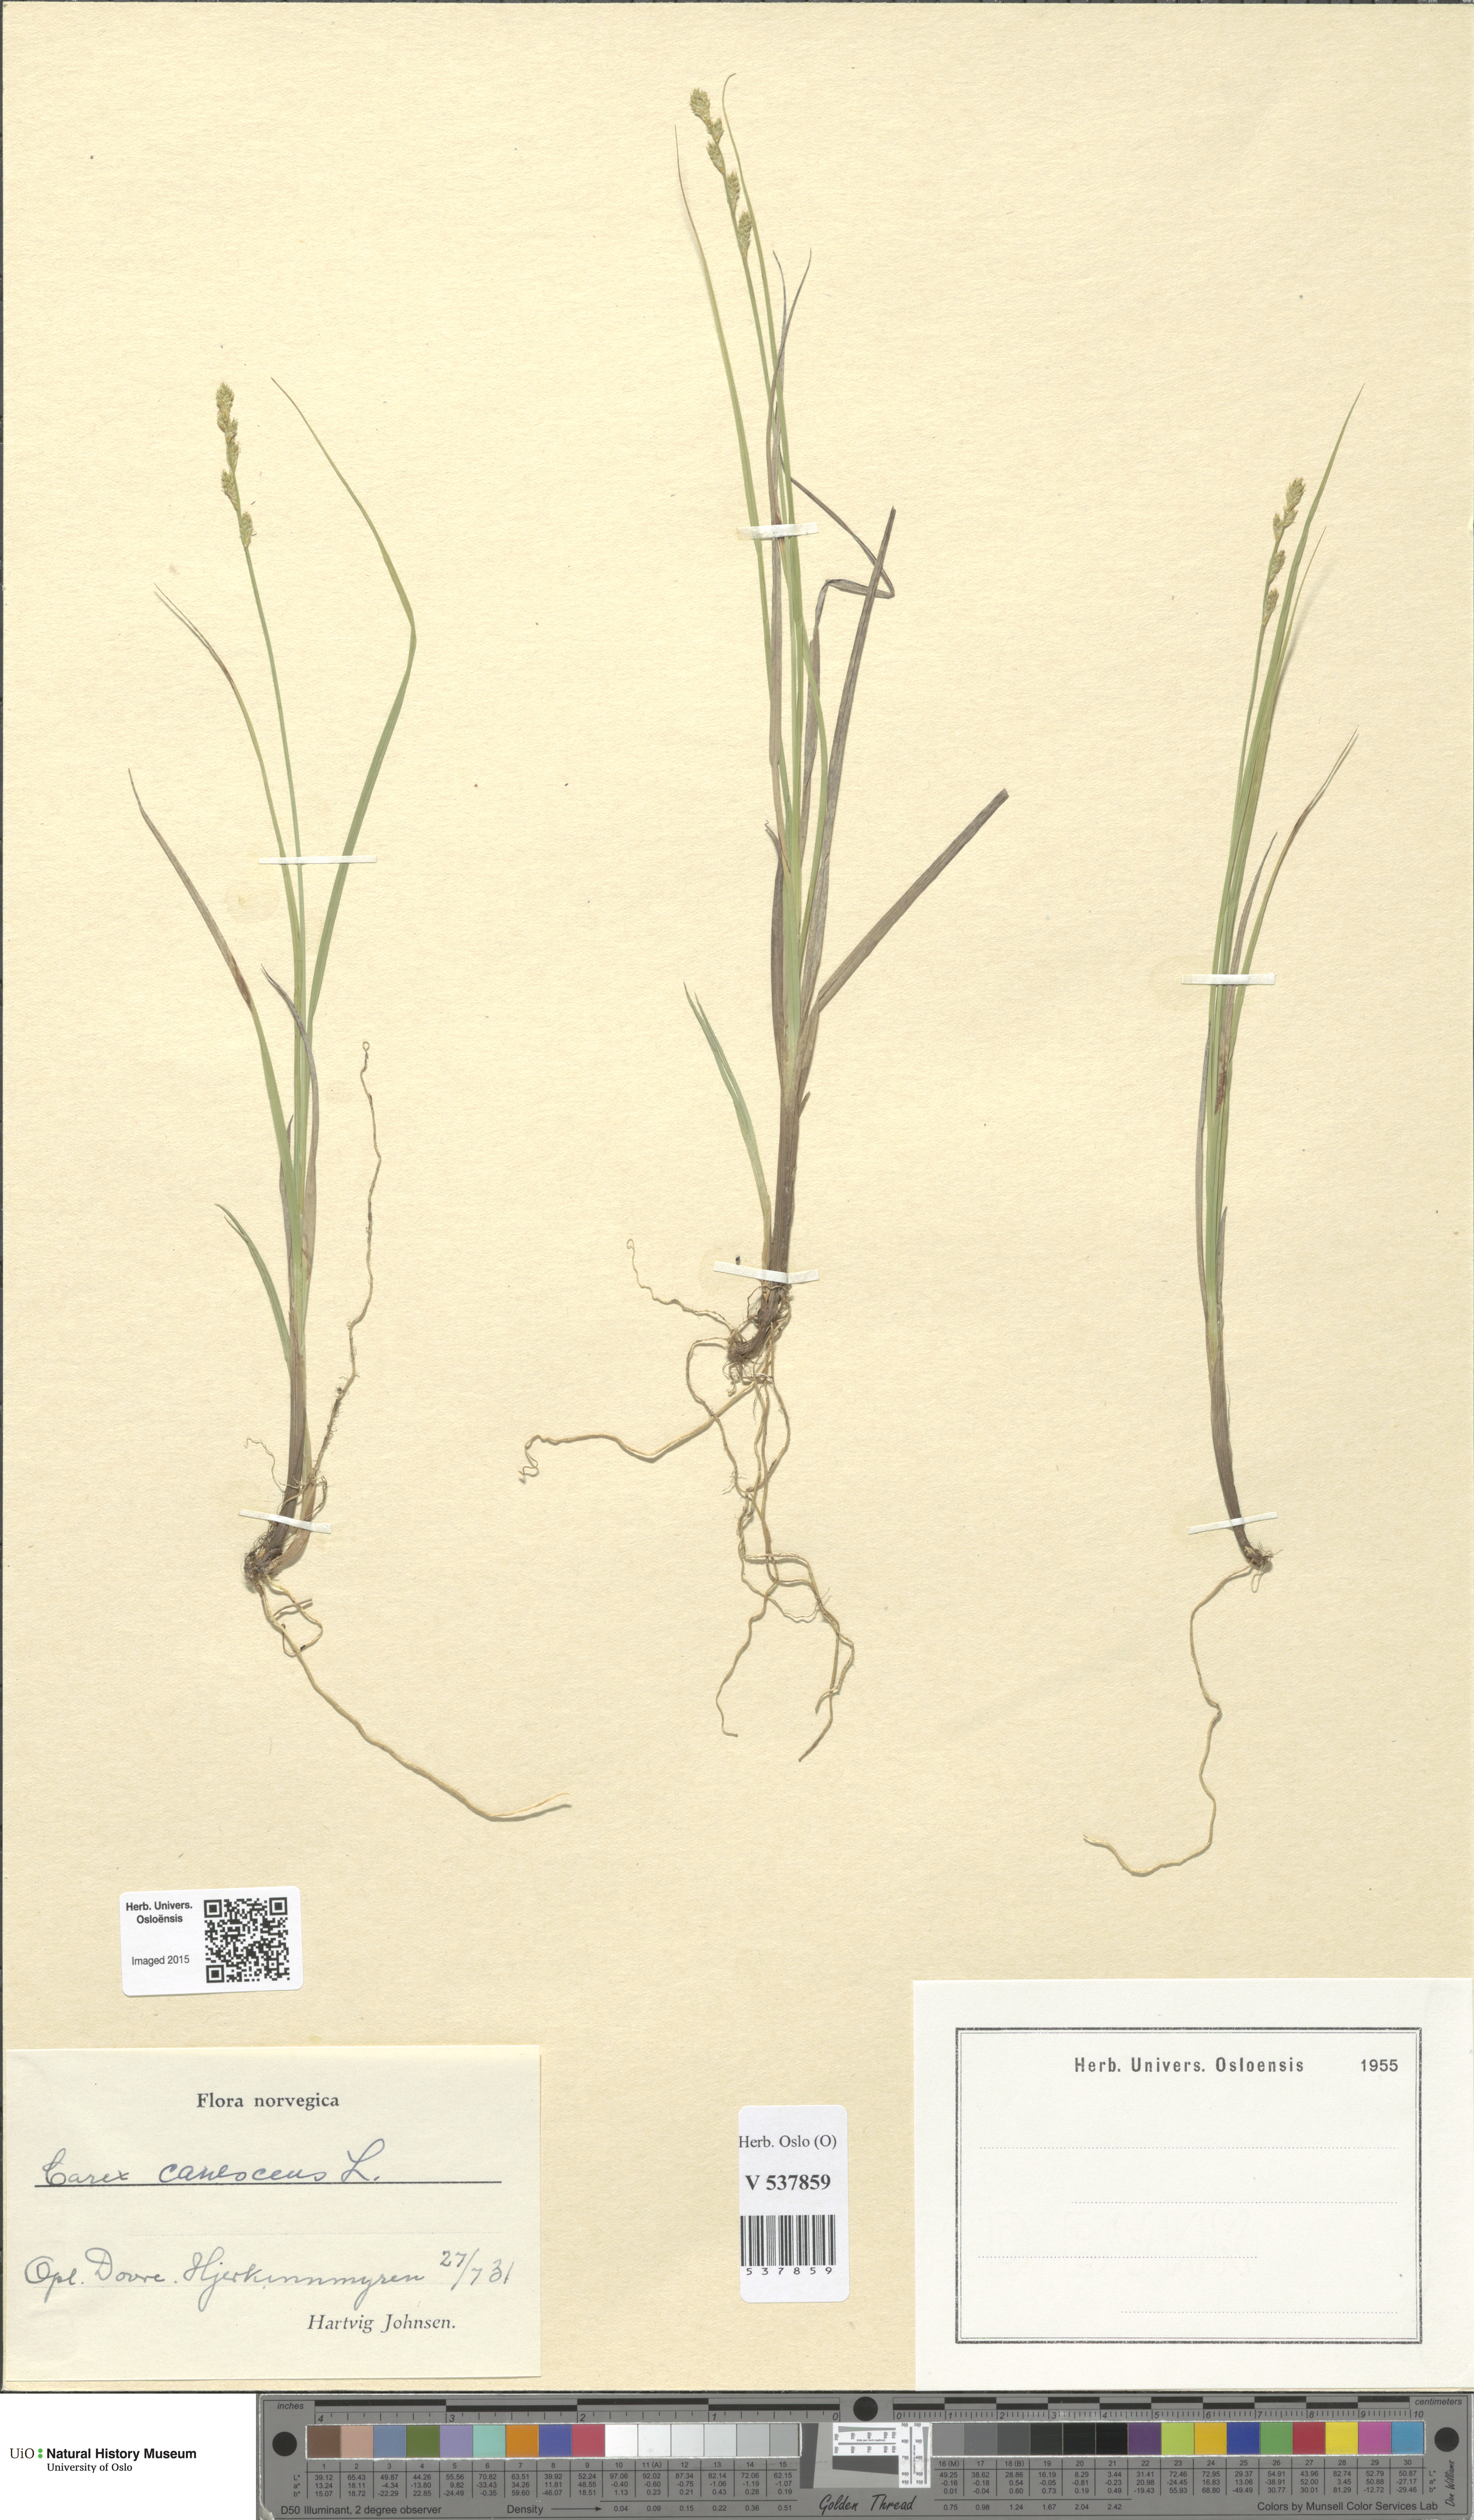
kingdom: Plantae
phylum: Tracheophyta
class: Liliopsida
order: Poales
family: Cyperaceae
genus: Carex
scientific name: Carex canescens
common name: White sedge
